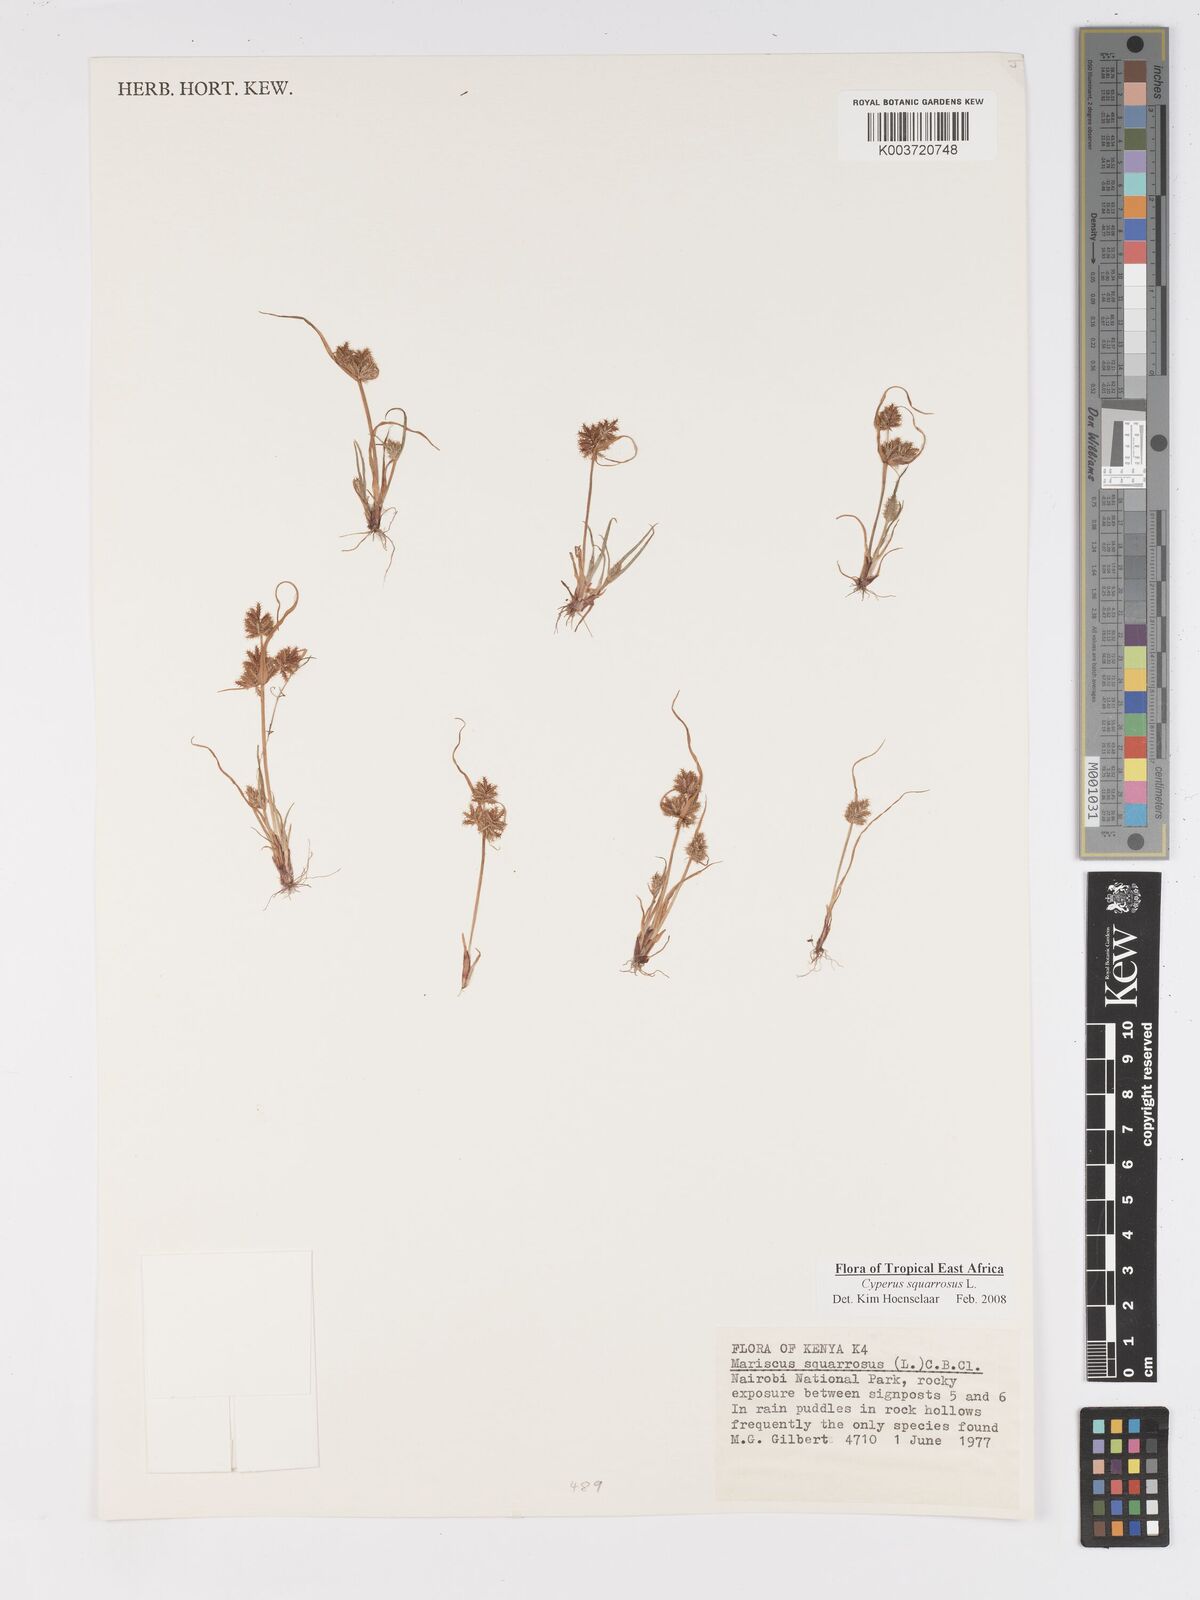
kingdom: Plantae
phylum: Tracheophyta
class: Liliopsida
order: Poales
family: Cyperaceae
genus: Cyperus
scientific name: Cyperus squarrosus
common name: Awned cyperus
